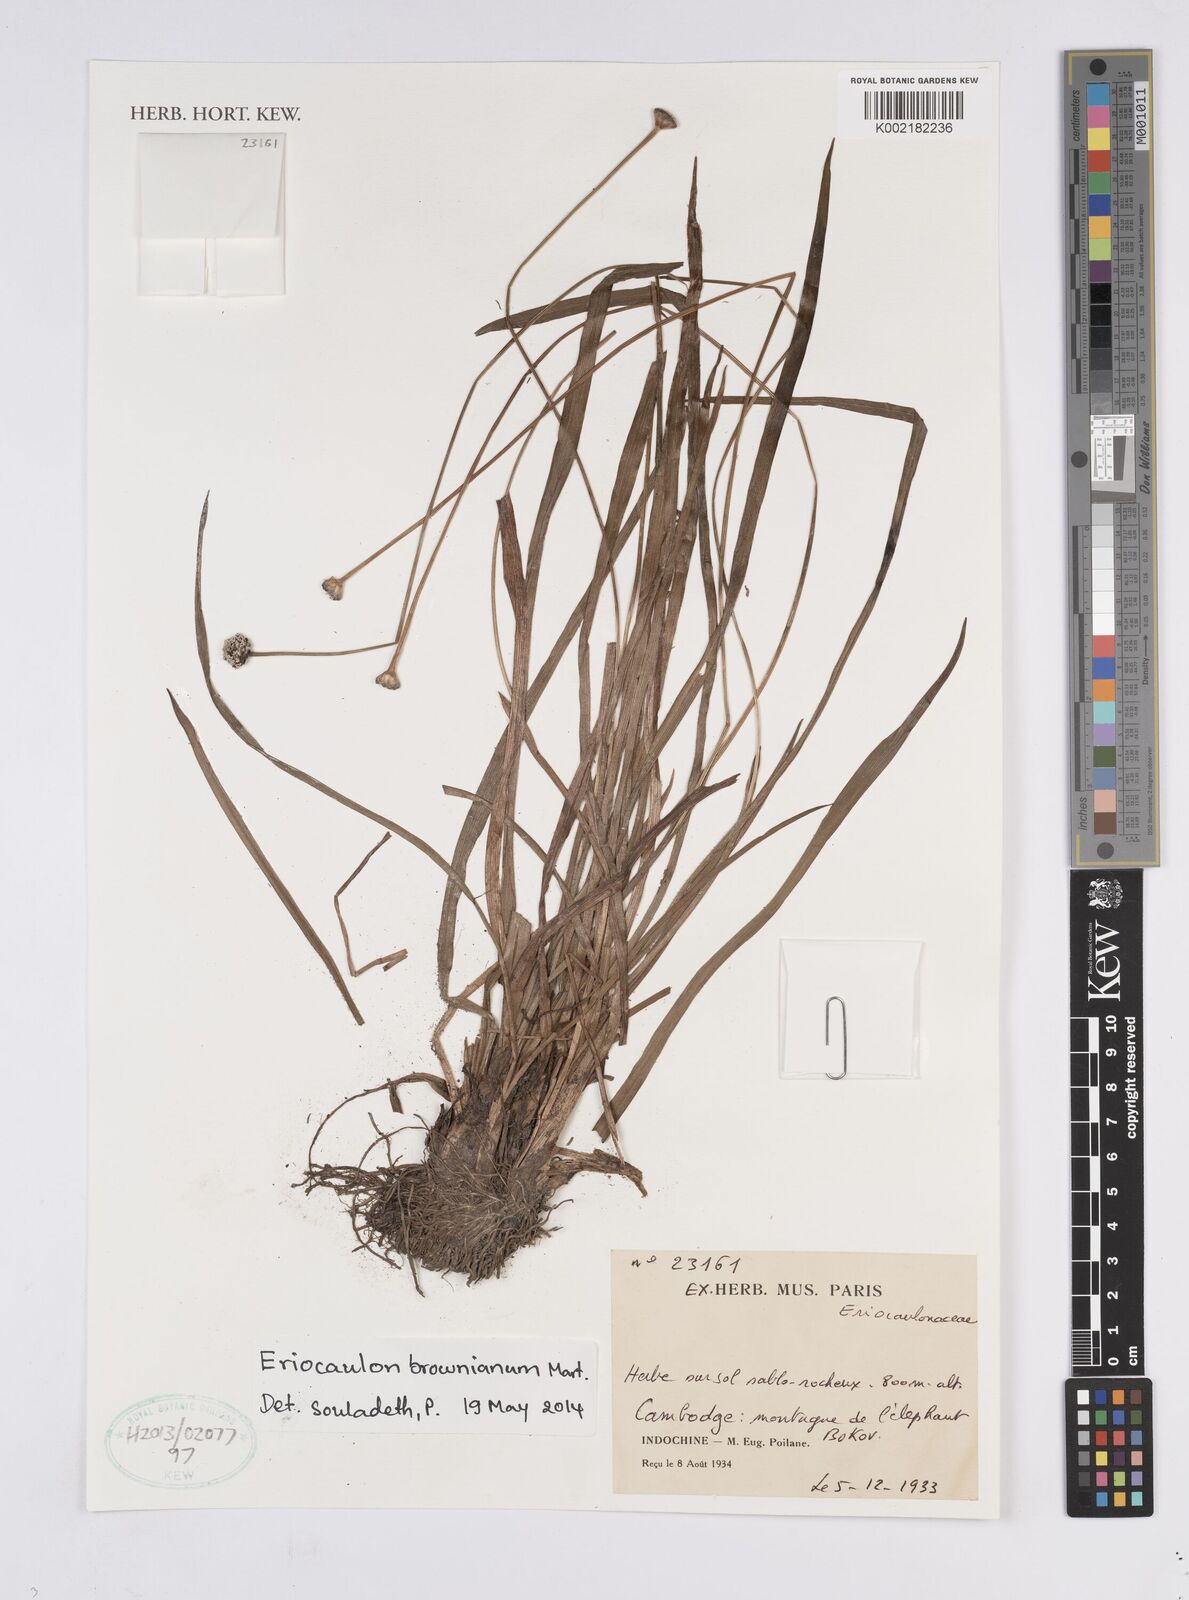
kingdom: Plantae
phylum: Tracheophyta
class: Liliopsida
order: Poales
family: Eriocaulaceae
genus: Eriocaulon
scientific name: Eriocaulon brownianum
